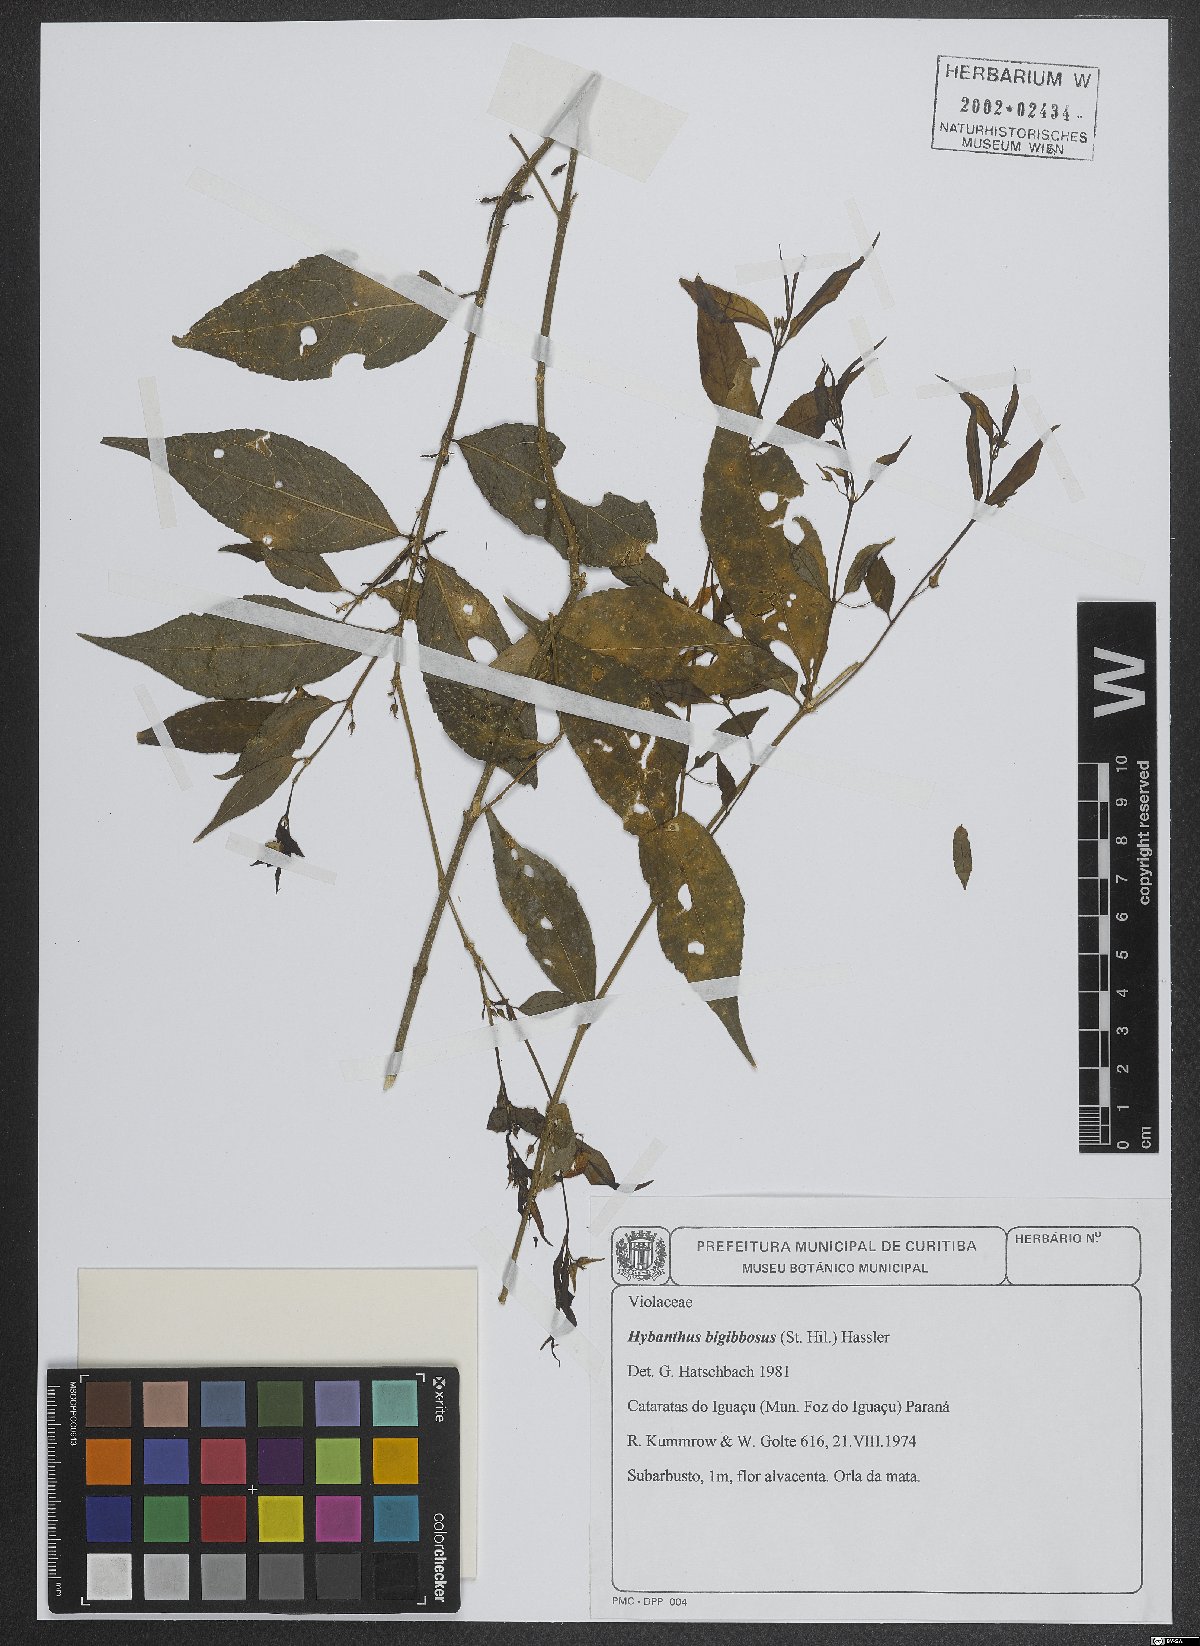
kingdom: Plantae
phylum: Tracheophyta
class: Magnoliopsida
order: Malpighiales
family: Violaceae
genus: Pombalia
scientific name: Pombalia bigibbosa
